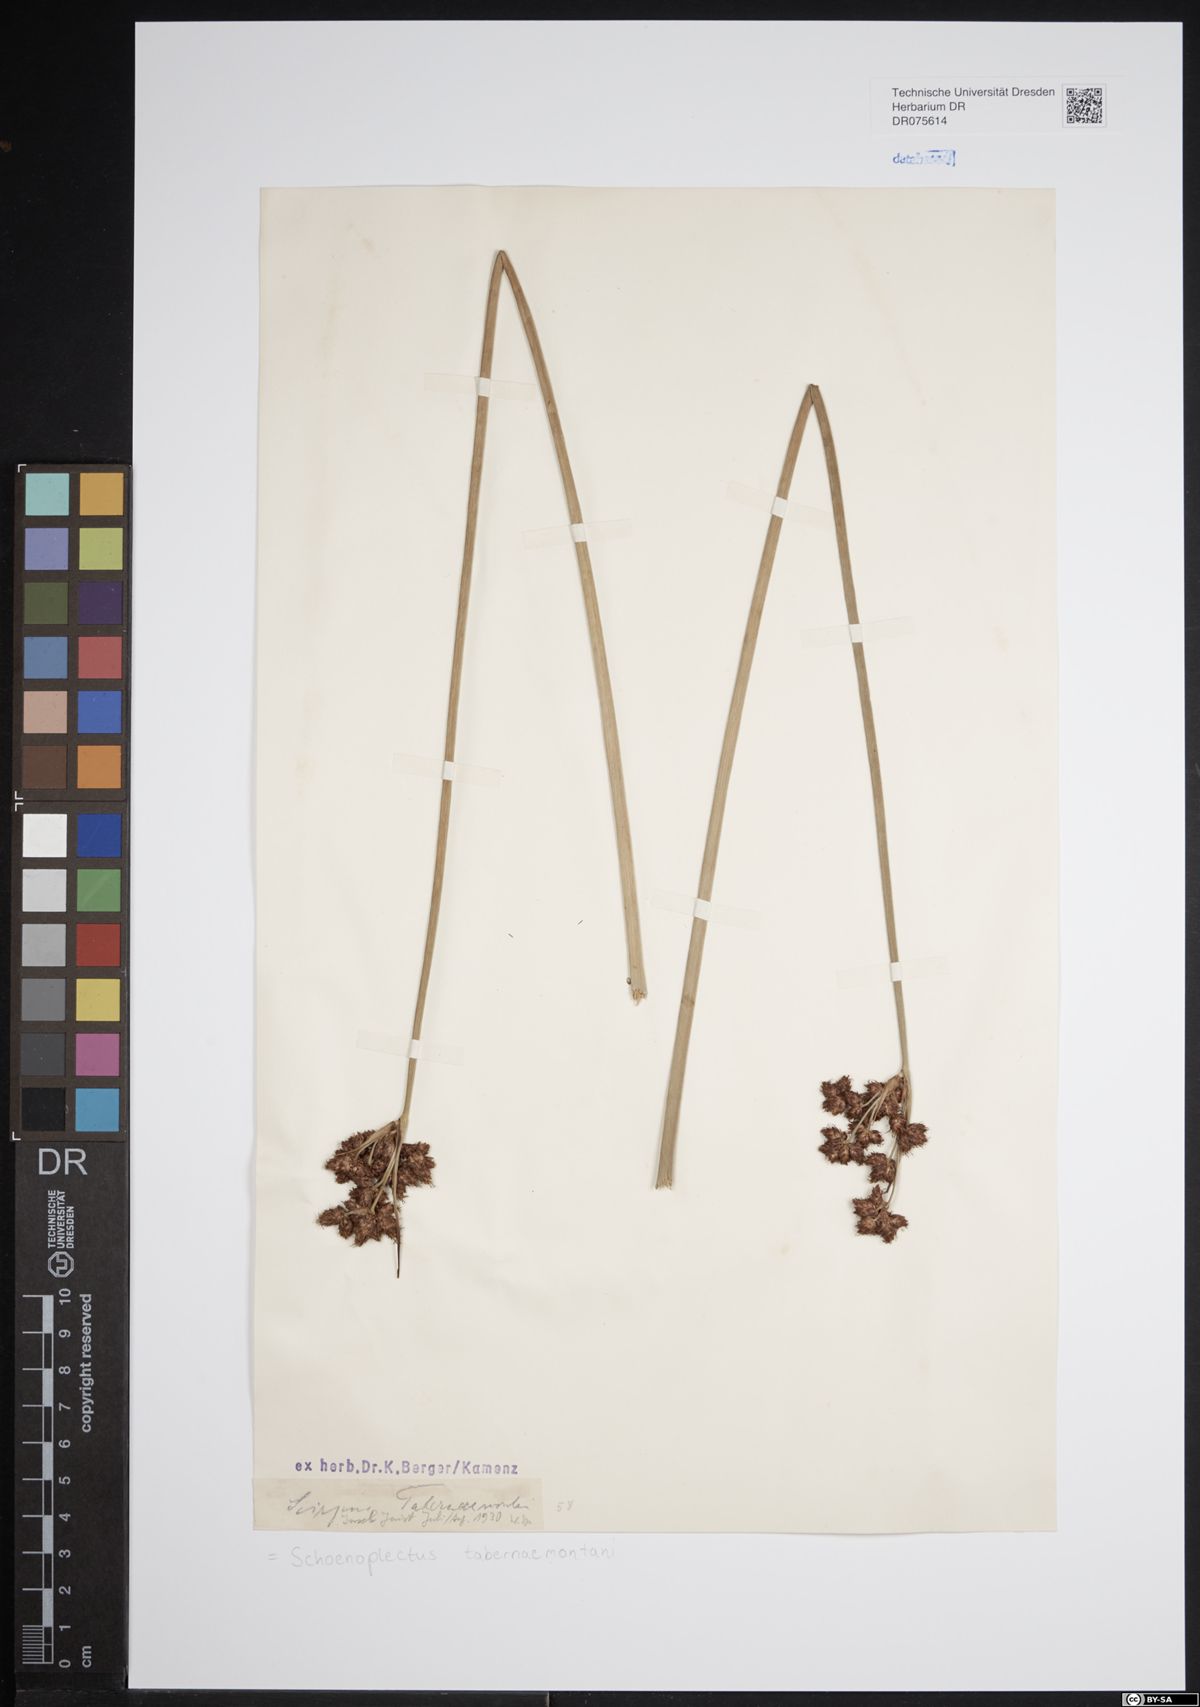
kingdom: Plantae
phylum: Tracheophyta
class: Liliopsida
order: Poales
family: Cyperaceae
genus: Schoenoplectus
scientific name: Schoenoplectus tabernaemontani
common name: Grey club-rush
